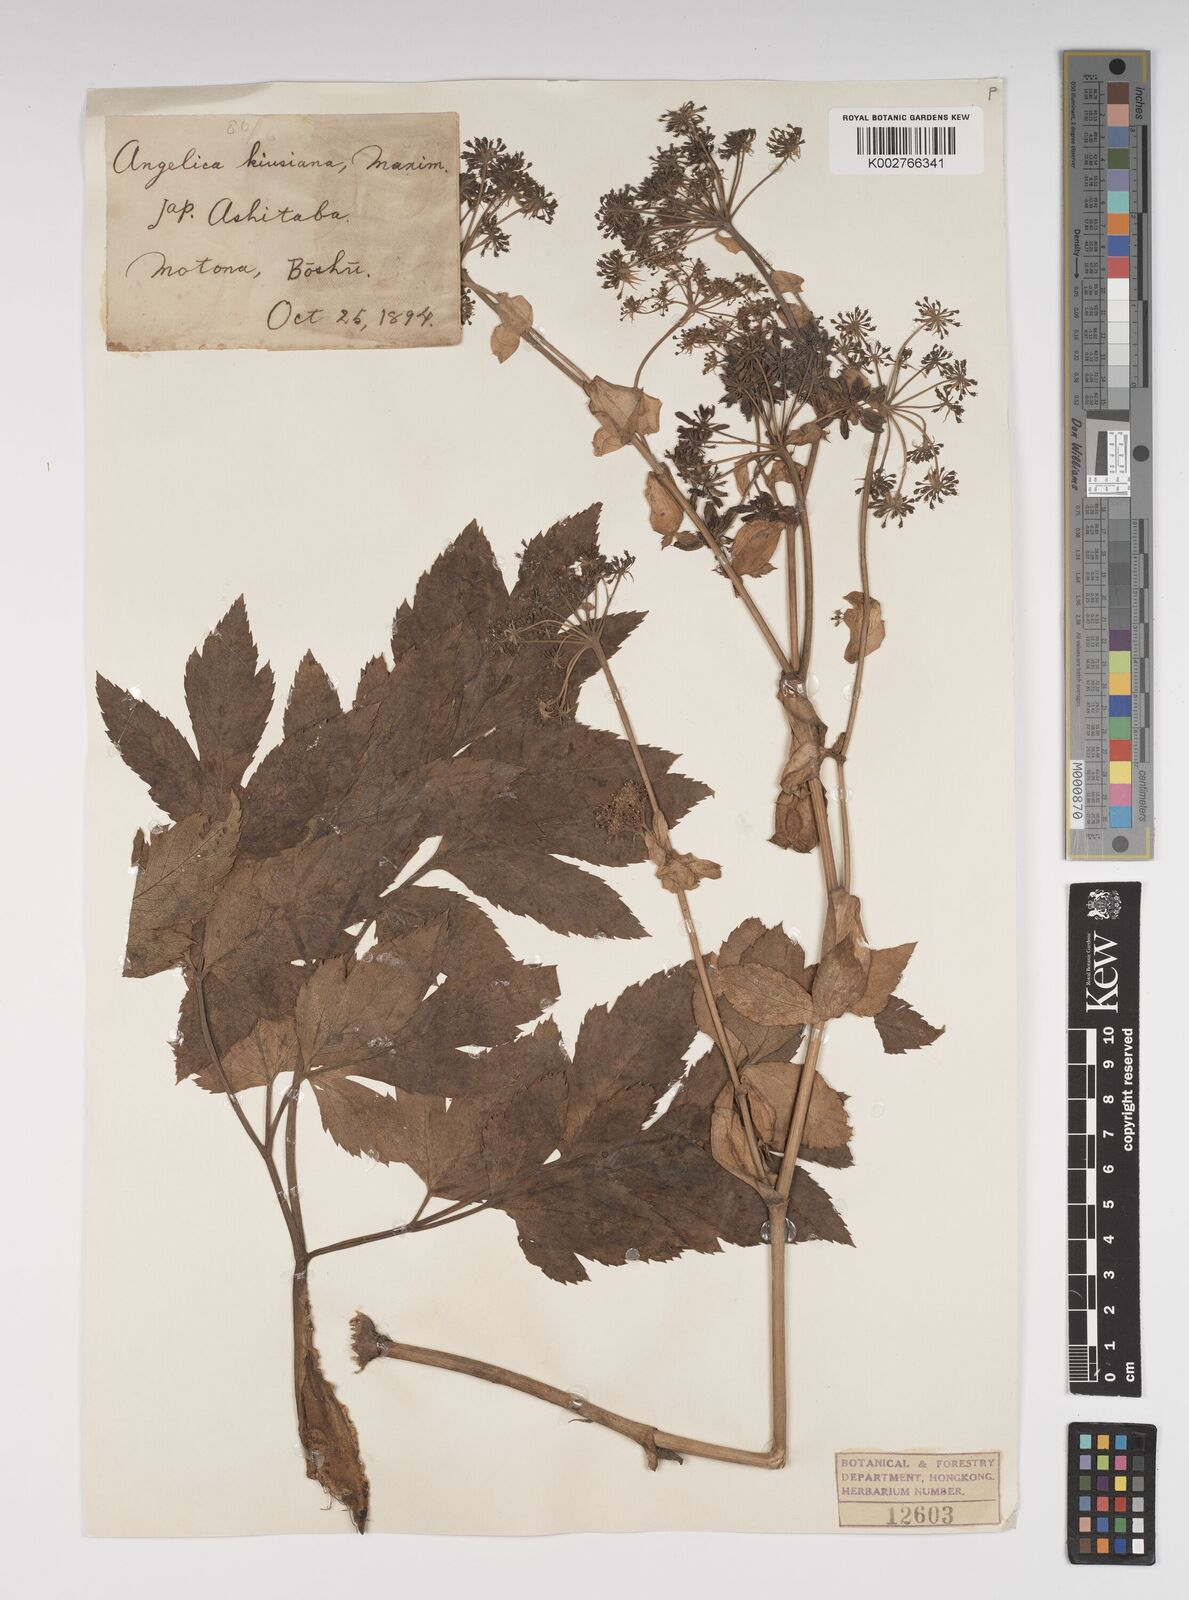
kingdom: Plantae
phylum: Tracheophyta
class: Magnoliopsida
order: Apiales
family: Apiaceae
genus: Angelica
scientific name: Angelica japonica
